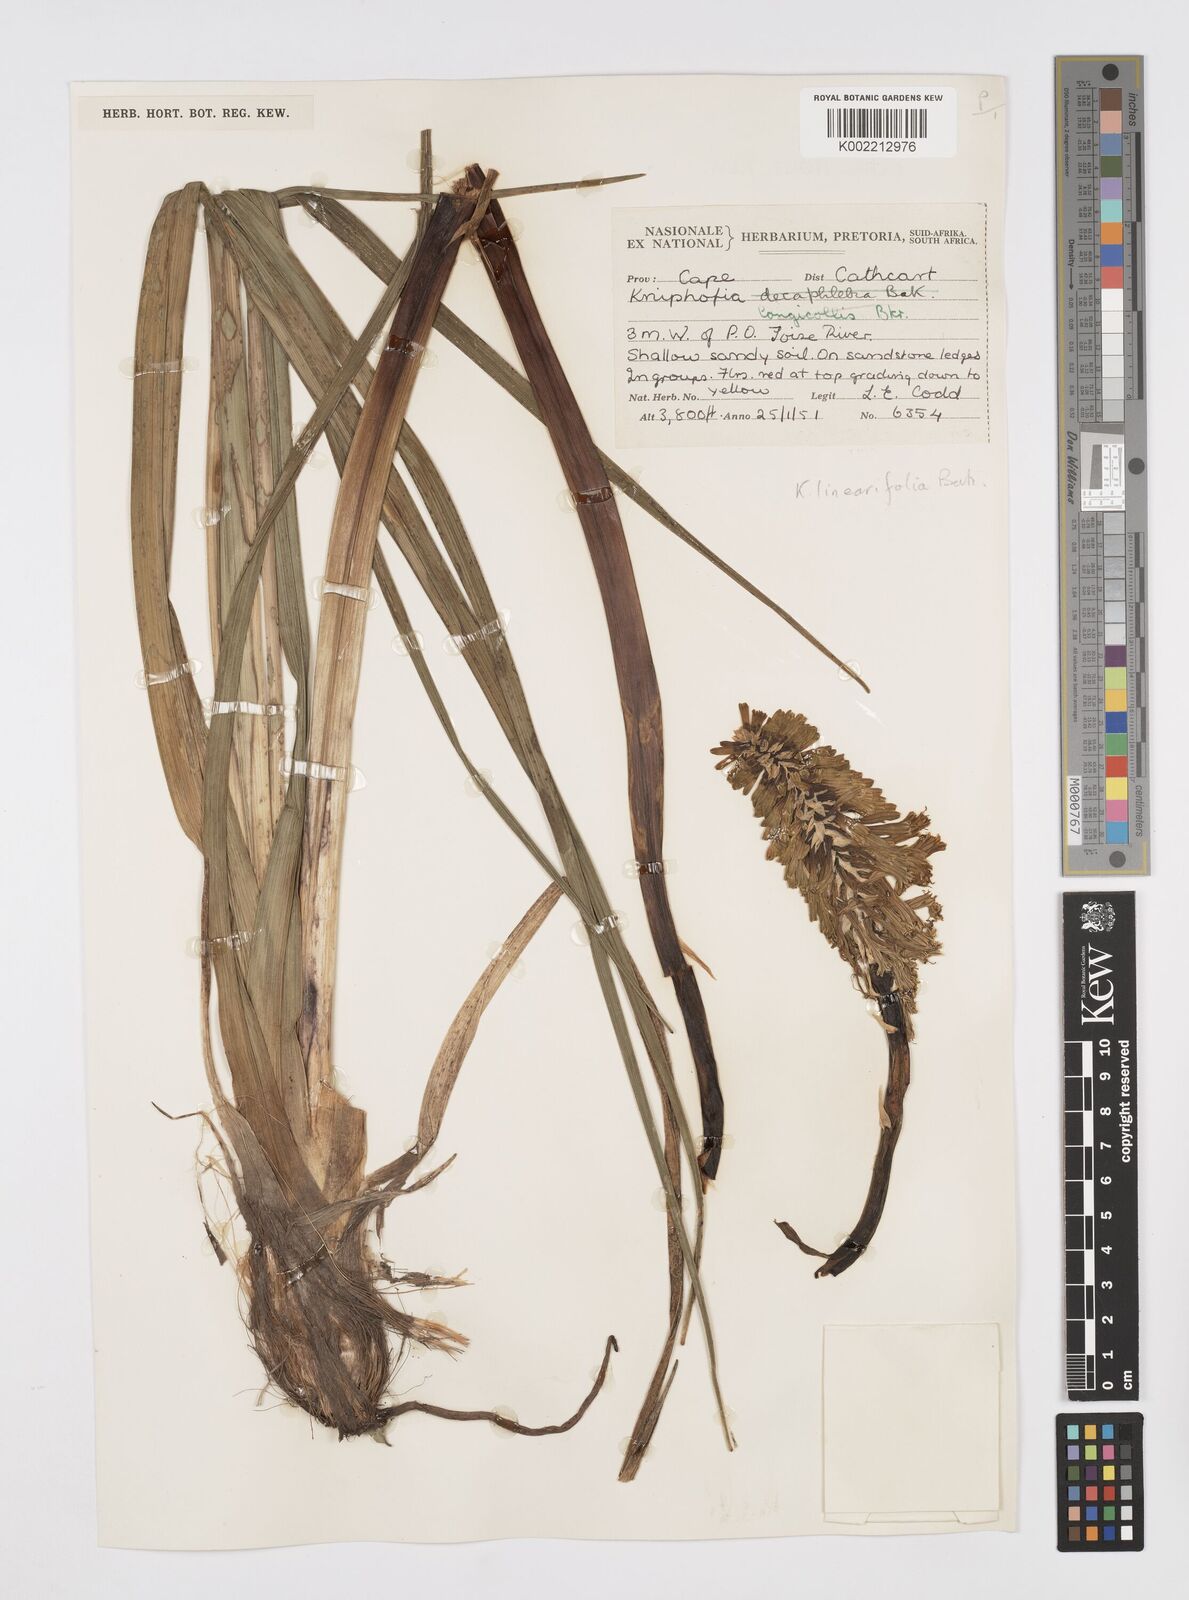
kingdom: Plantae
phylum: Tracheophyta
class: Liliopsida
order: Asparagales
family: Asphodelaceae
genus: Kniphofia
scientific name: Kniphofia linearifolia
